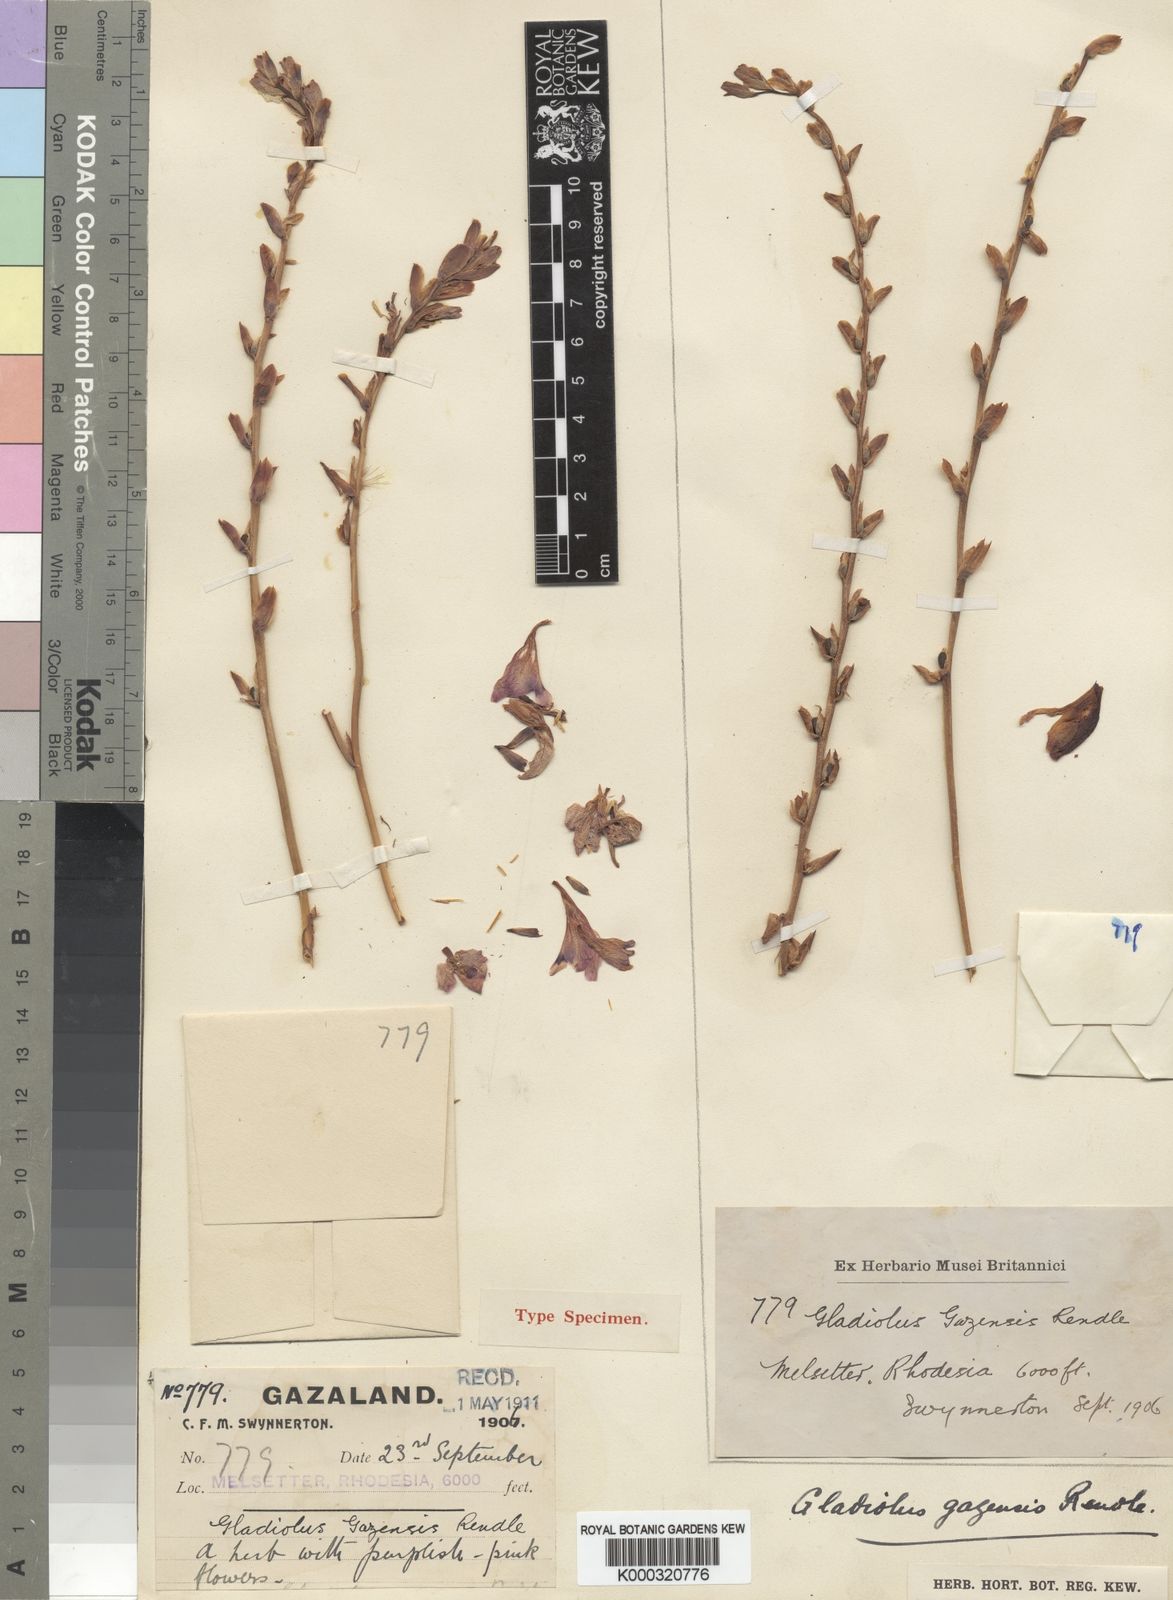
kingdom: Plantae
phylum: Tracheophyta
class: Liliopsida
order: Asparagales
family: Iridaceae
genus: Gladiolus
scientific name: Gladiolus crassifolius
